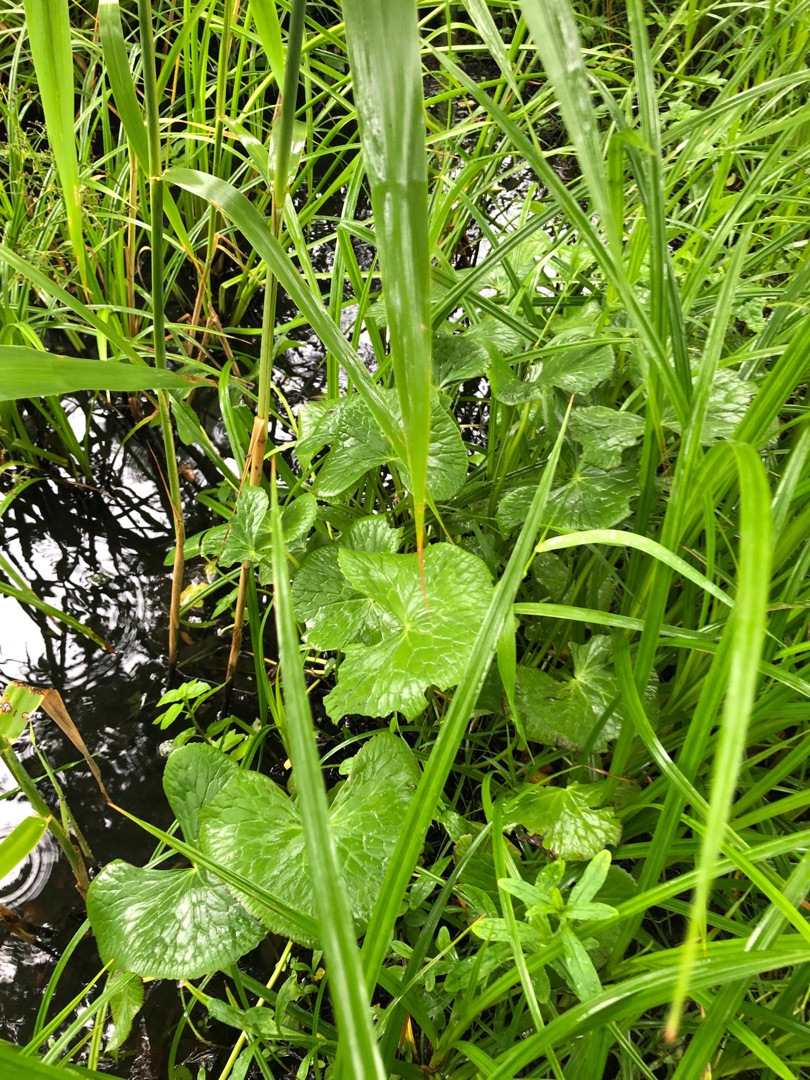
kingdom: Plantae
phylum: Tracheophyta
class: Magnoliopsida
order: Ranunculales
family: Ranunculaceae
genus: Caltha
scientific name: Caltha palustris
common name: Eng-kabbeleje
